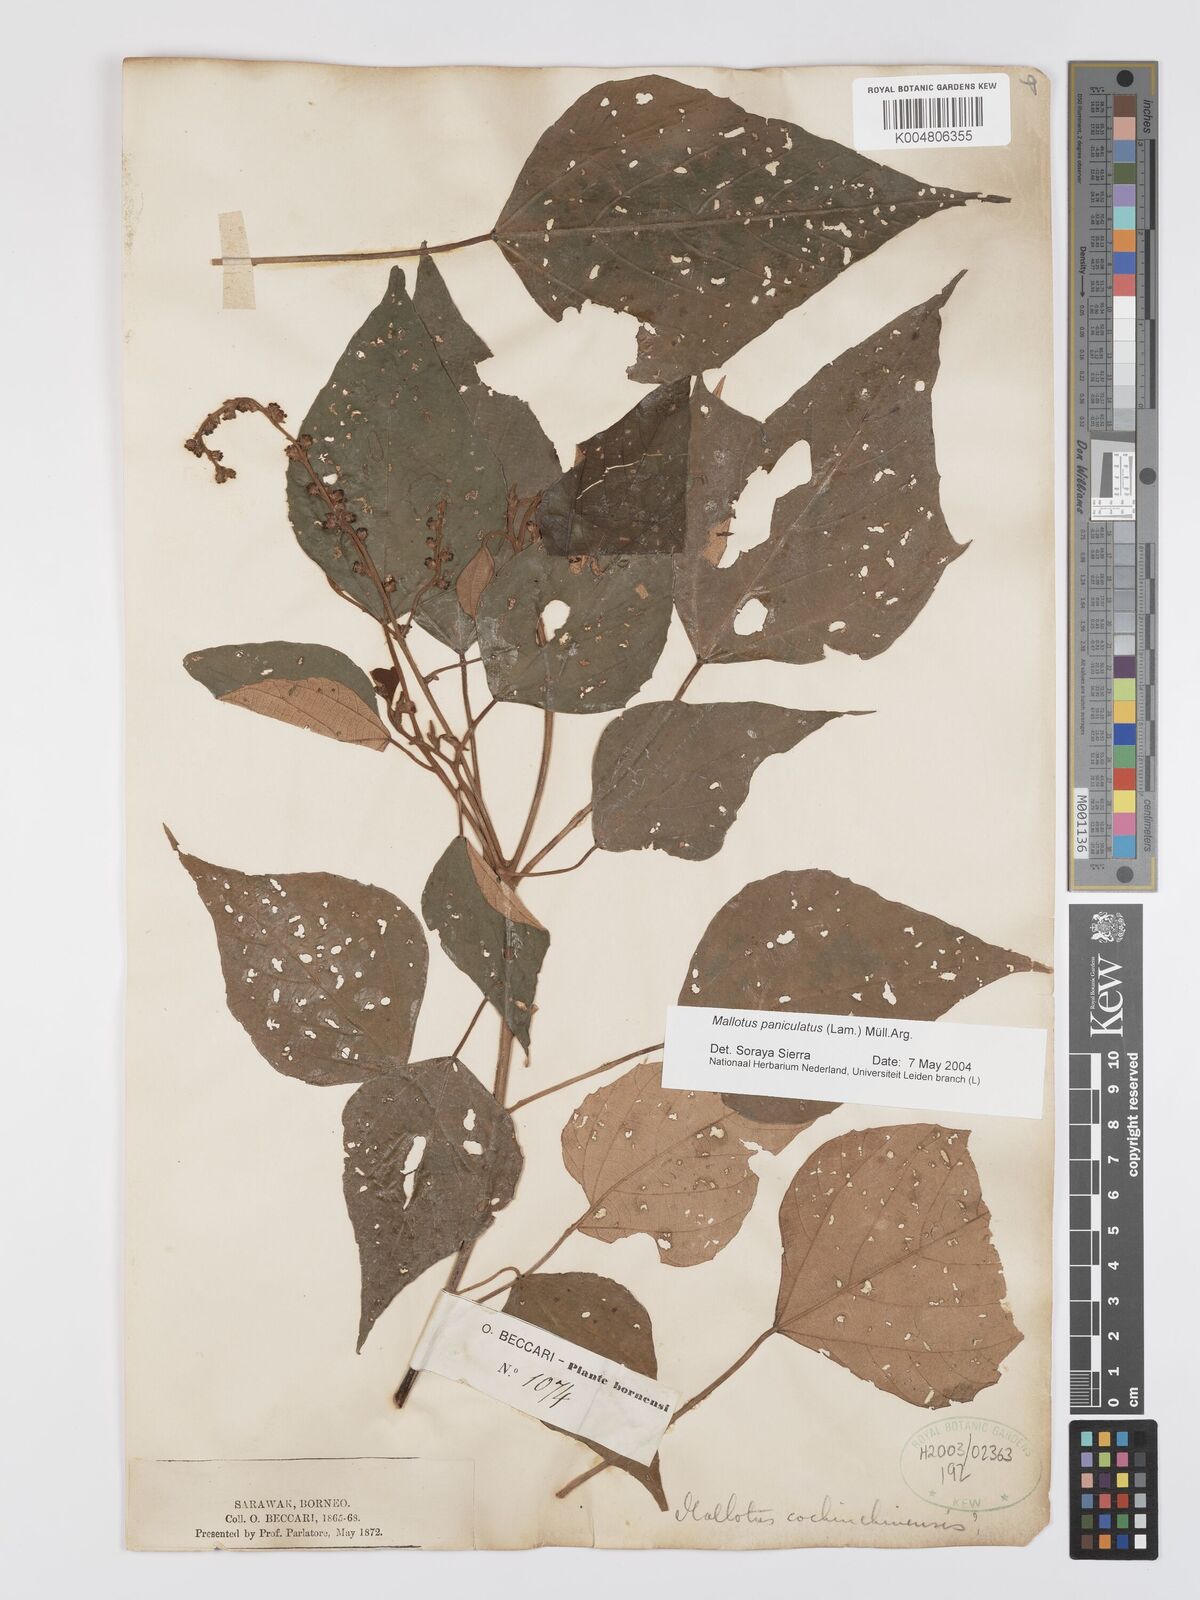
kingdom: Plantae
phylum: Tracheophyta
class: Magnoliopsida
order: Malpighiales
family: Euphorbiaceae
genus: Mallotus
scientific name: Mallotus paniculatus
